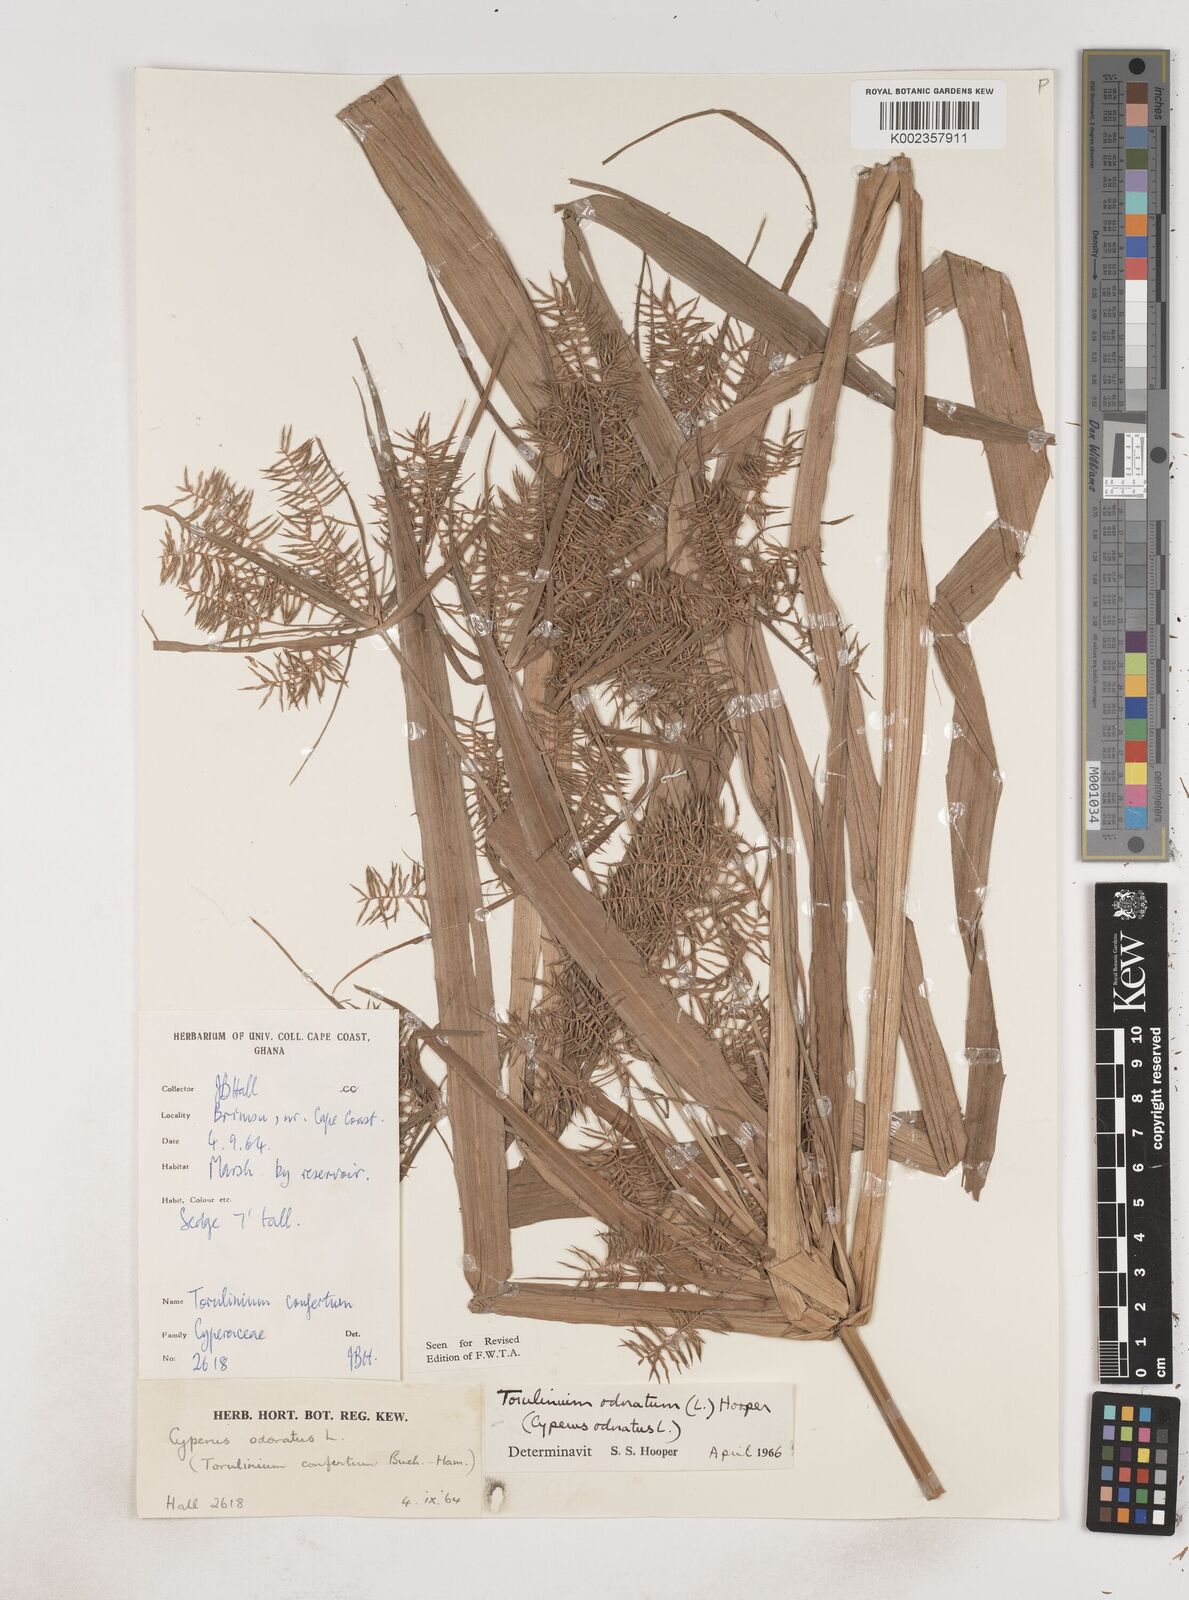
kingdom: Plantae
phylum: Tracheophyta
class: Liliopsida
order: Poales
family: Cyperaceae
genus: Cyperus
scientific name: Cyperus odoratus
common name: Fragrant flatsedge
